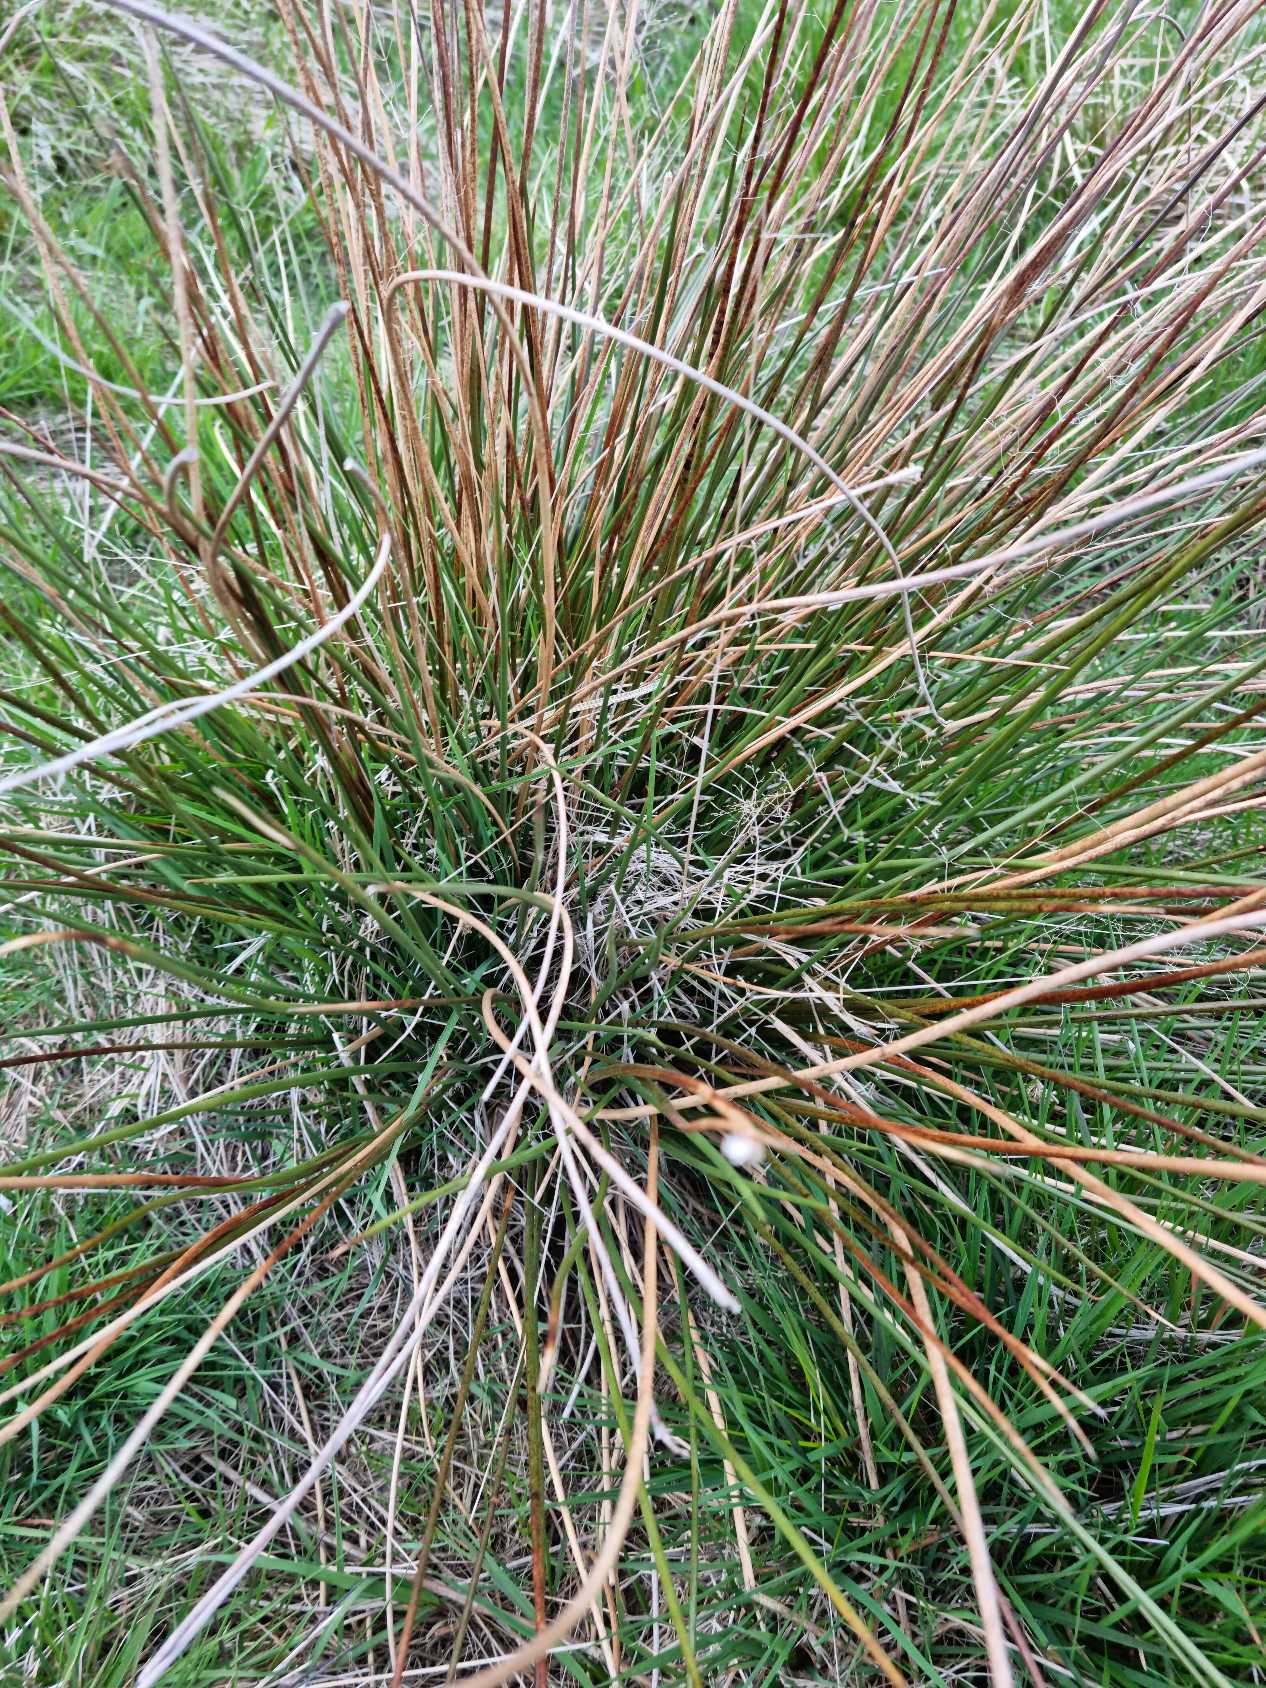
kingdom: Plantae
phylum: Tracheophyta
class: Liliopsida
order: Poales
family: Juncaceae
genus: Juncus
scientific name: Juncus effusus
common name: Lyse-siv
